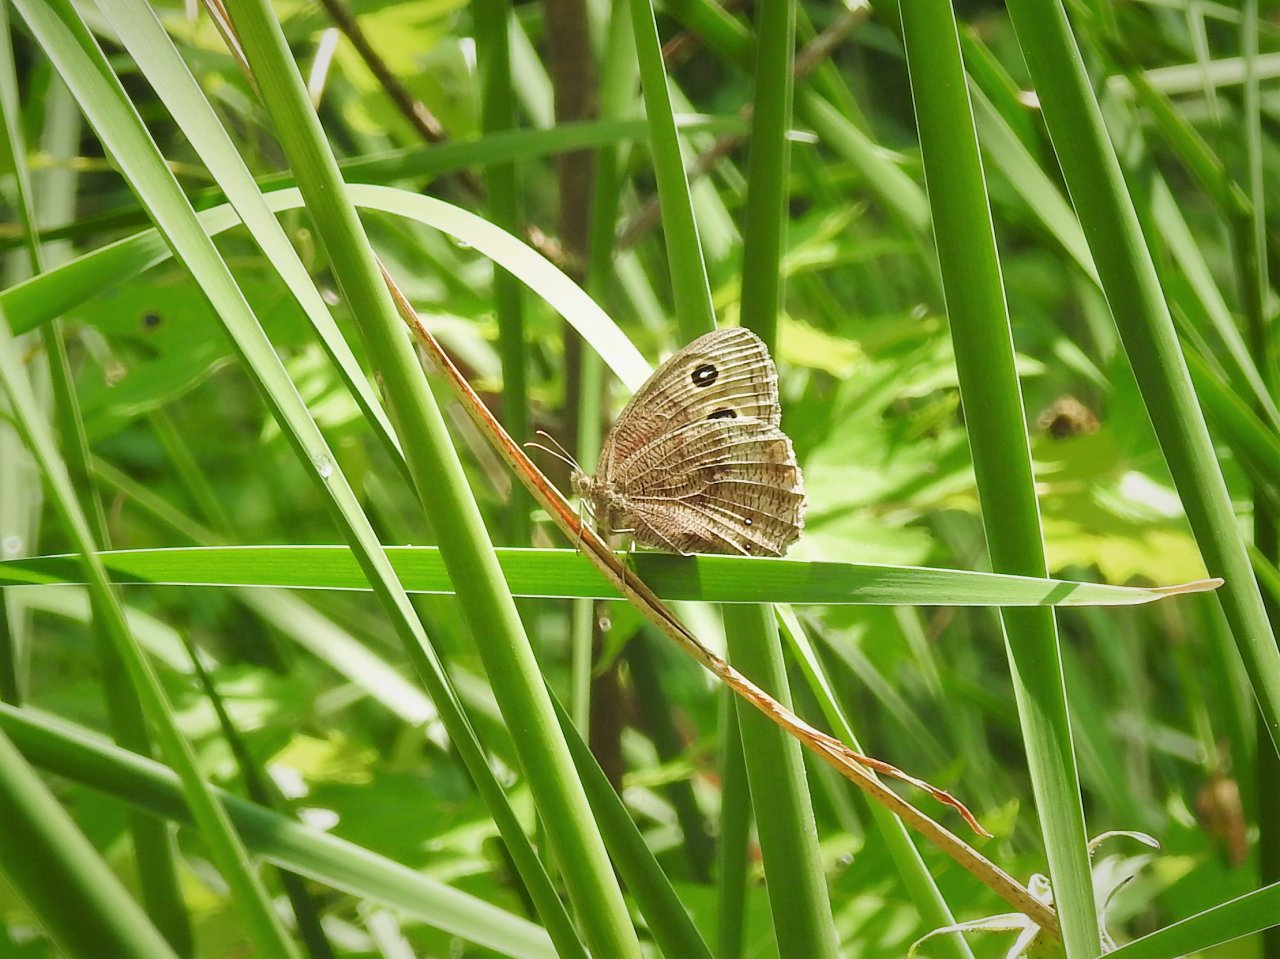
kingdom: Animalia
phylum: Arthropoda
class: Insecta
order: Lepidoptera
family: Nymphalidae
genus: Cercyonis
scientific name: Cercyonis pegala
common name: Common Wood-Nymph
